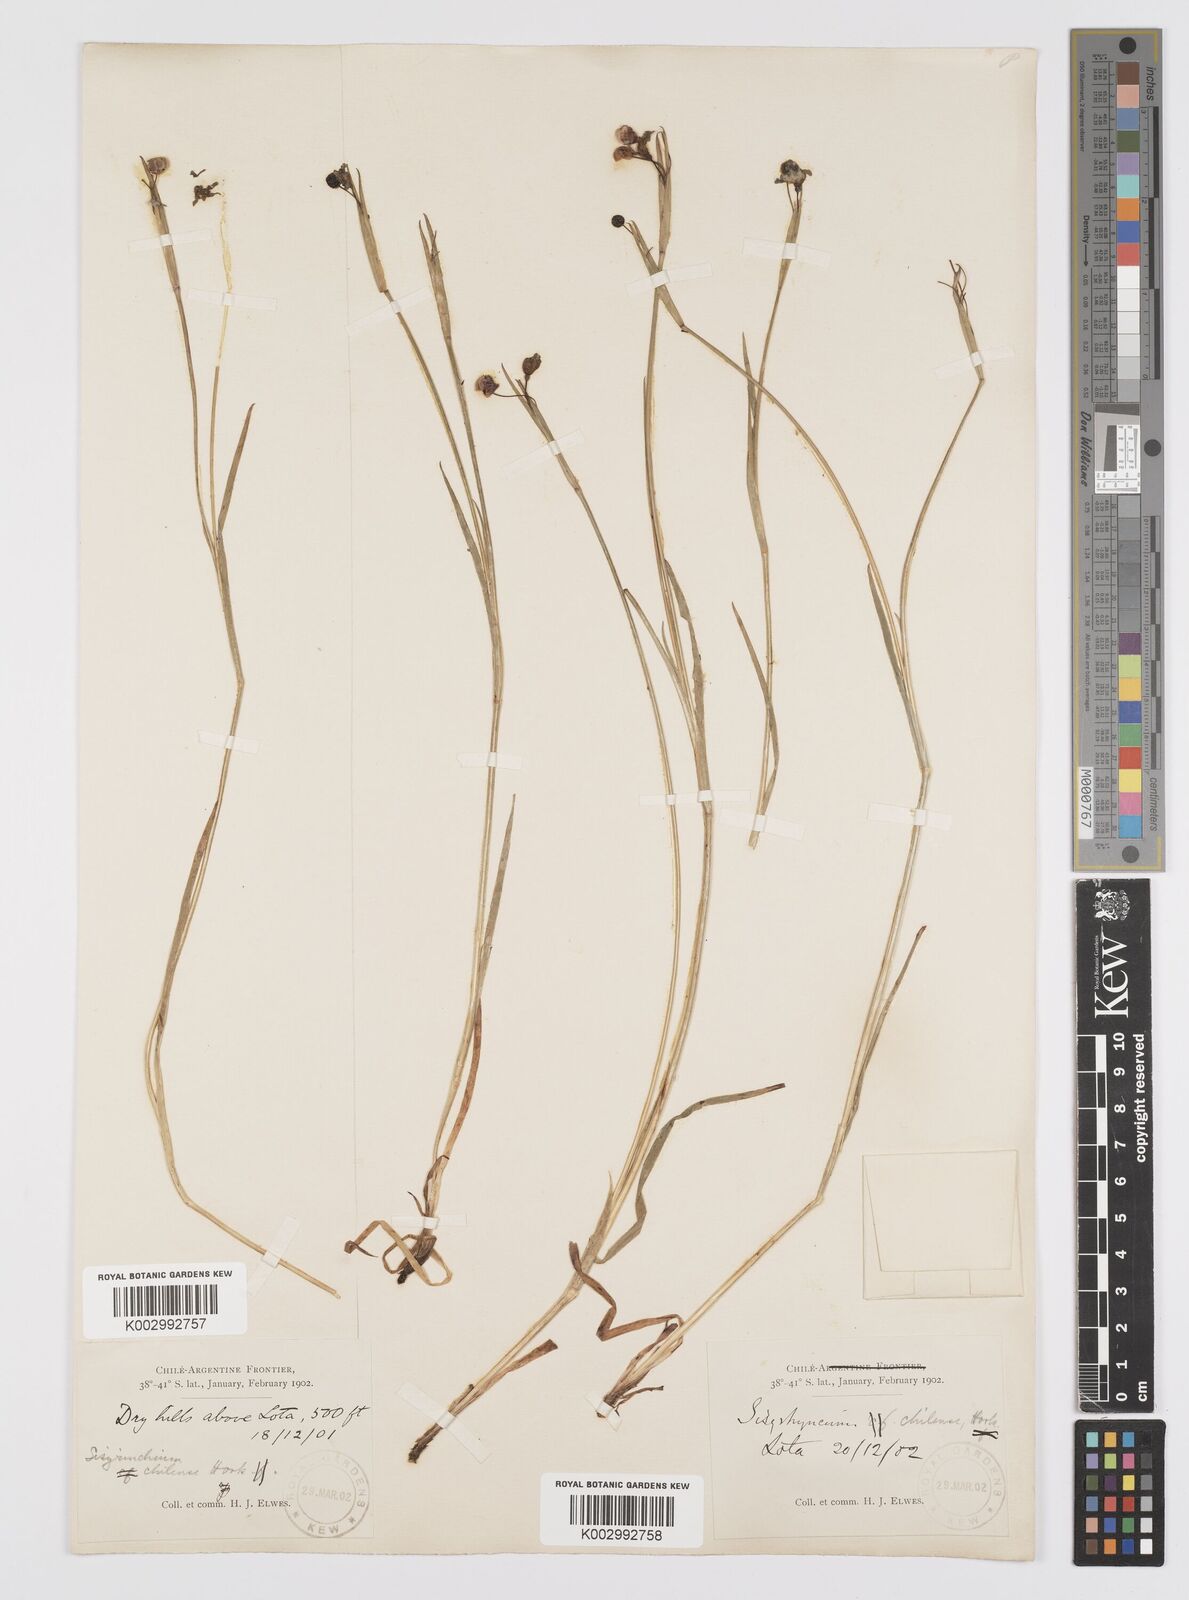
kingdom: Plantae
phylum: Tracheophyta
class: Liliopsida
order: Asparagales
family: Iridaceae
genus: Sisyrinchium
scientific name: Sisyrinchium chilense
